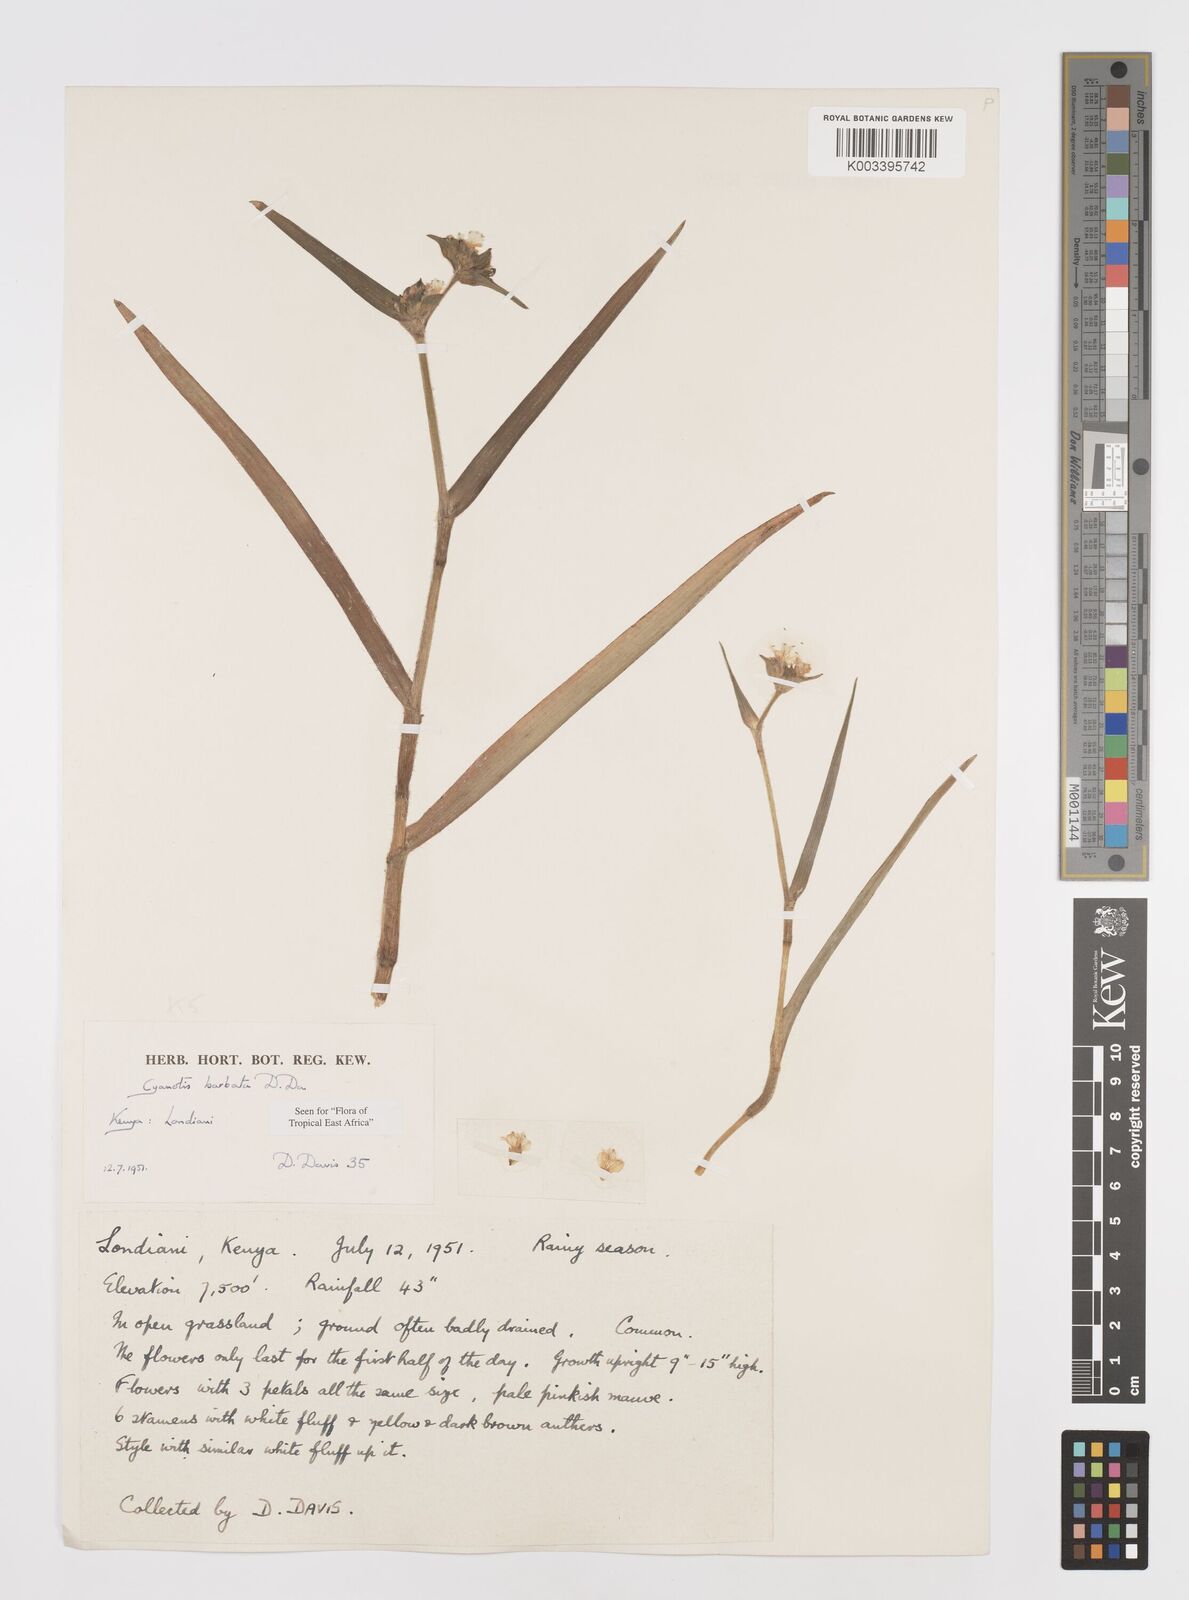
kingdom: Plantae
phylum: Tracheophyta
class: Liliopsida
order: Commelinales
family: Commelinaceae
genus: Cyanotis
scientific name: Cyanotis vaga
